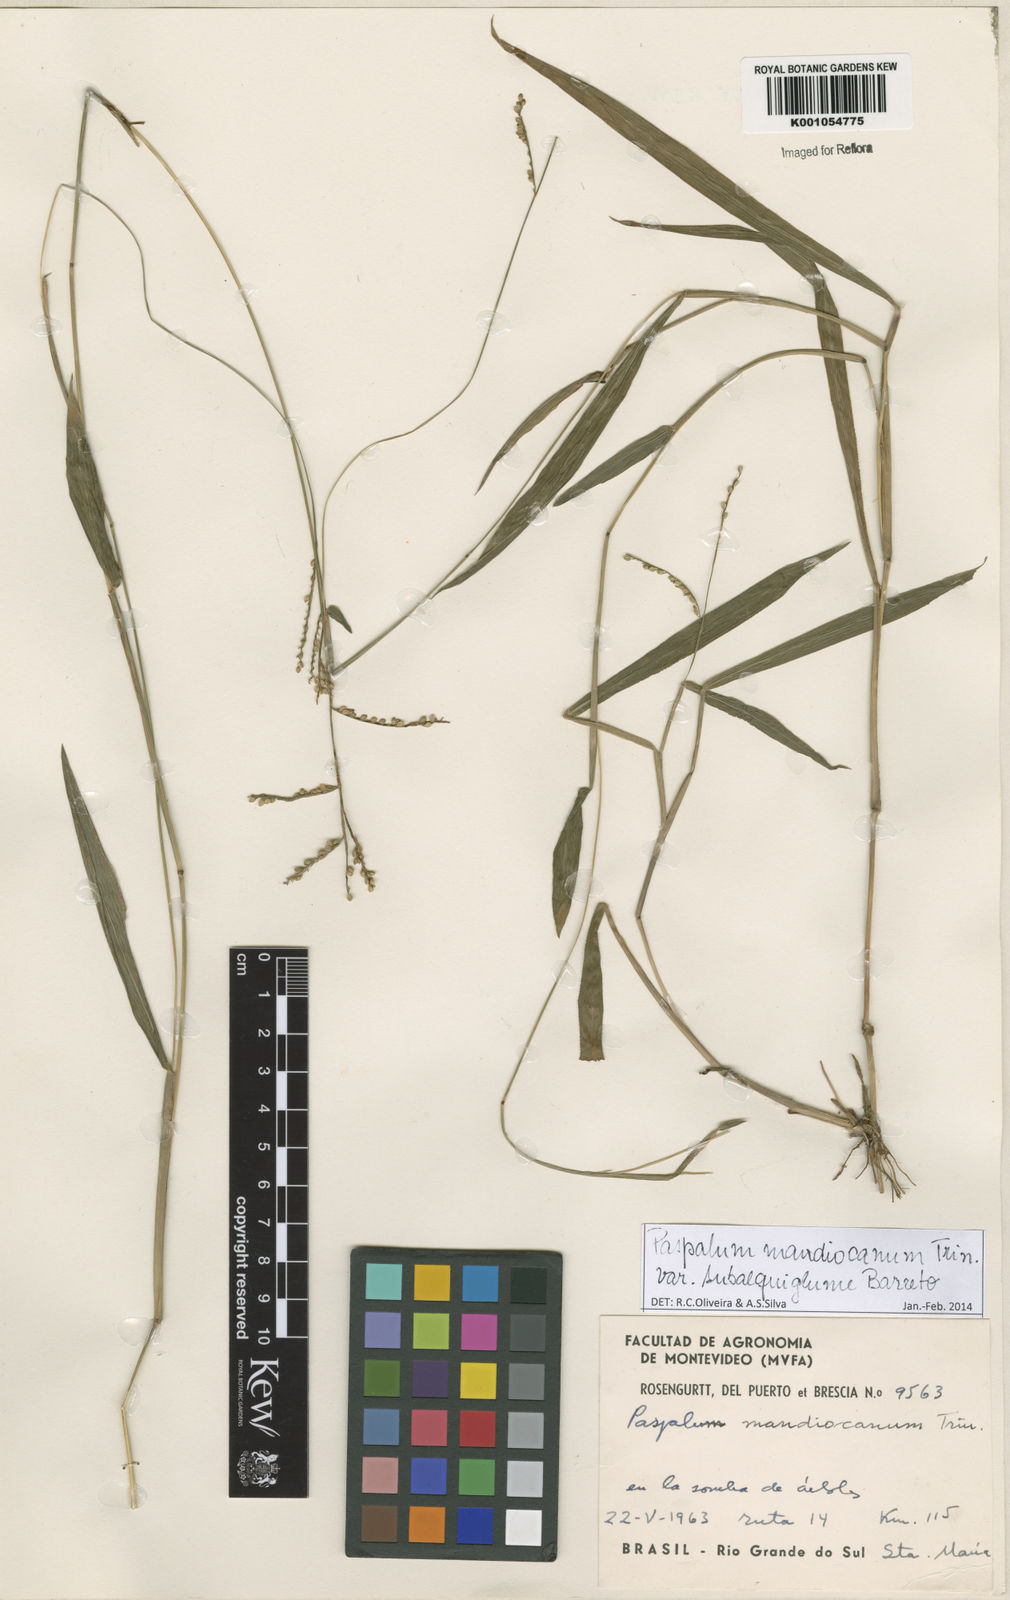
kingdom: Plantae
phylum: Tracheophyta
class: Liliopsida
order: Poales
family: Poaceae
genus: Paspalum
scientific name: Paspalum mandiocanum
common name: Paspalum
